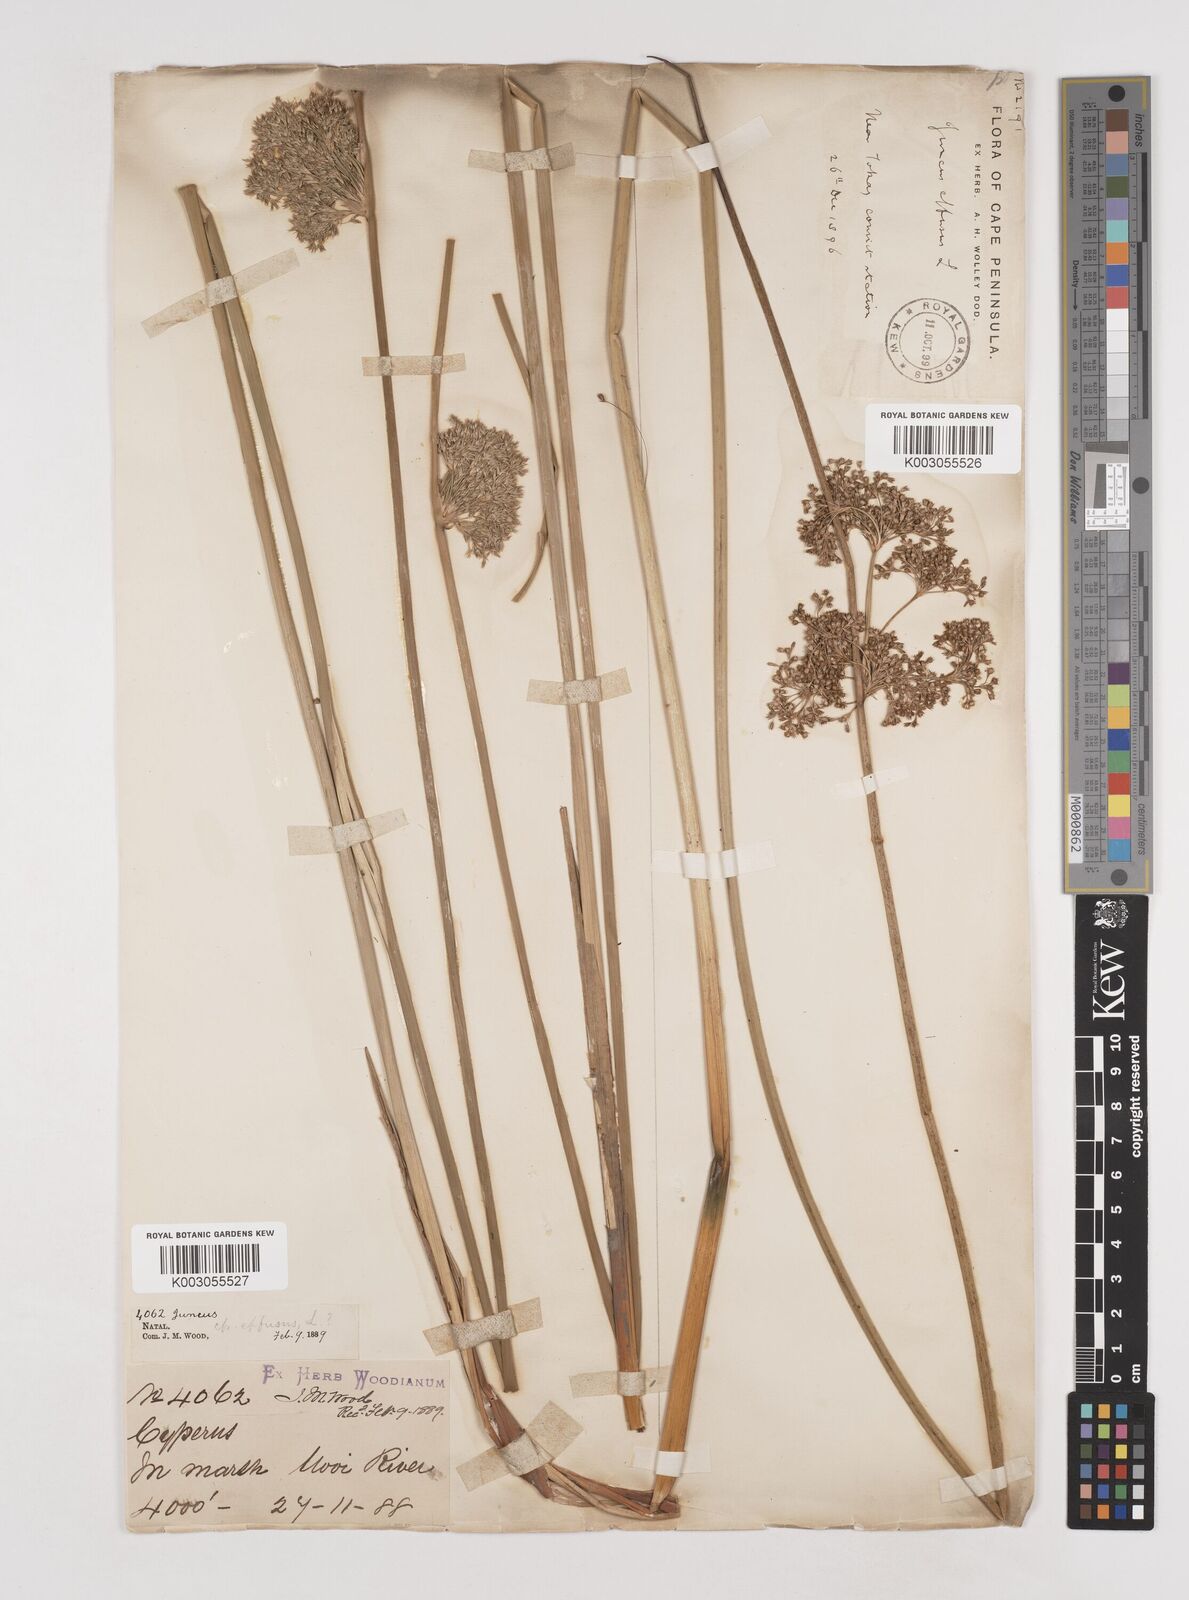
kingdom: Plantae
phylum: Tracheophyta
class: Liliopsida
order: Poales
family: Juncaceae
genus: Juncus
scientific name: Juncus effusus
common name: Soft rush
